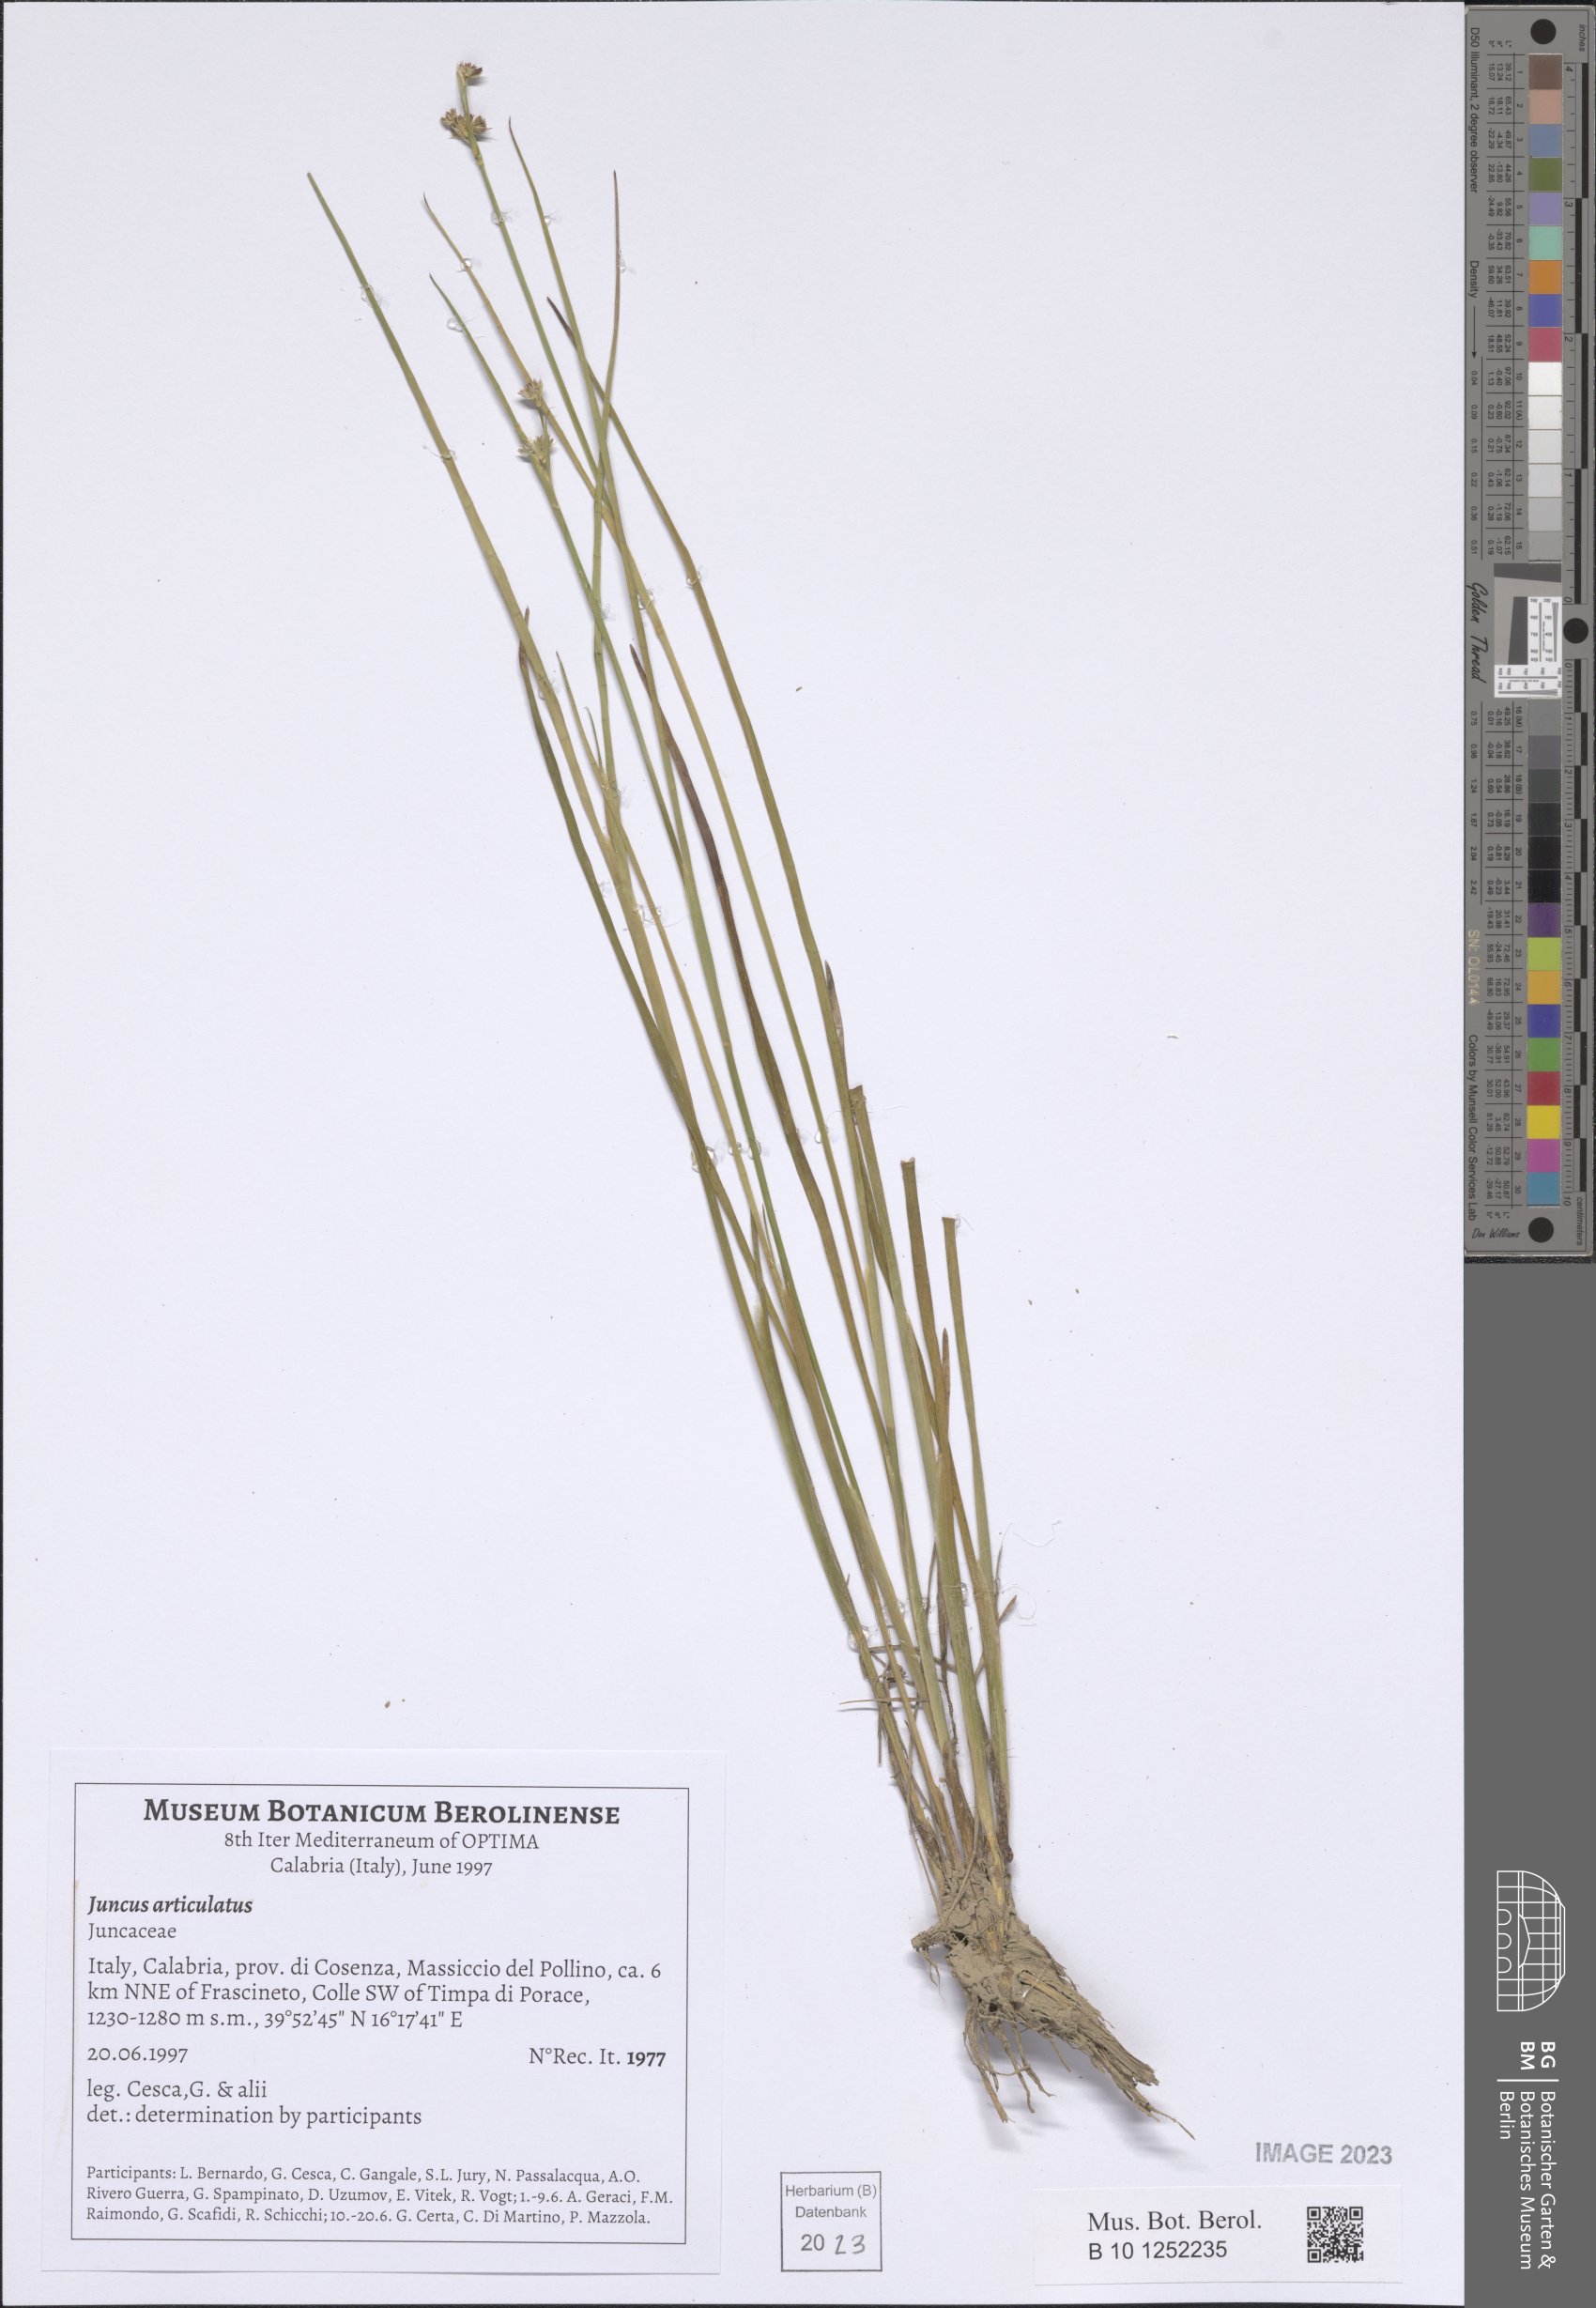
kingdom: Plantae
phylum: Tracheophyta
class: Liliopsida
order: Poales
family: Juncaceae
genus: Juncus
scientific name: Juncus articulatus
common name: Jointed rush
